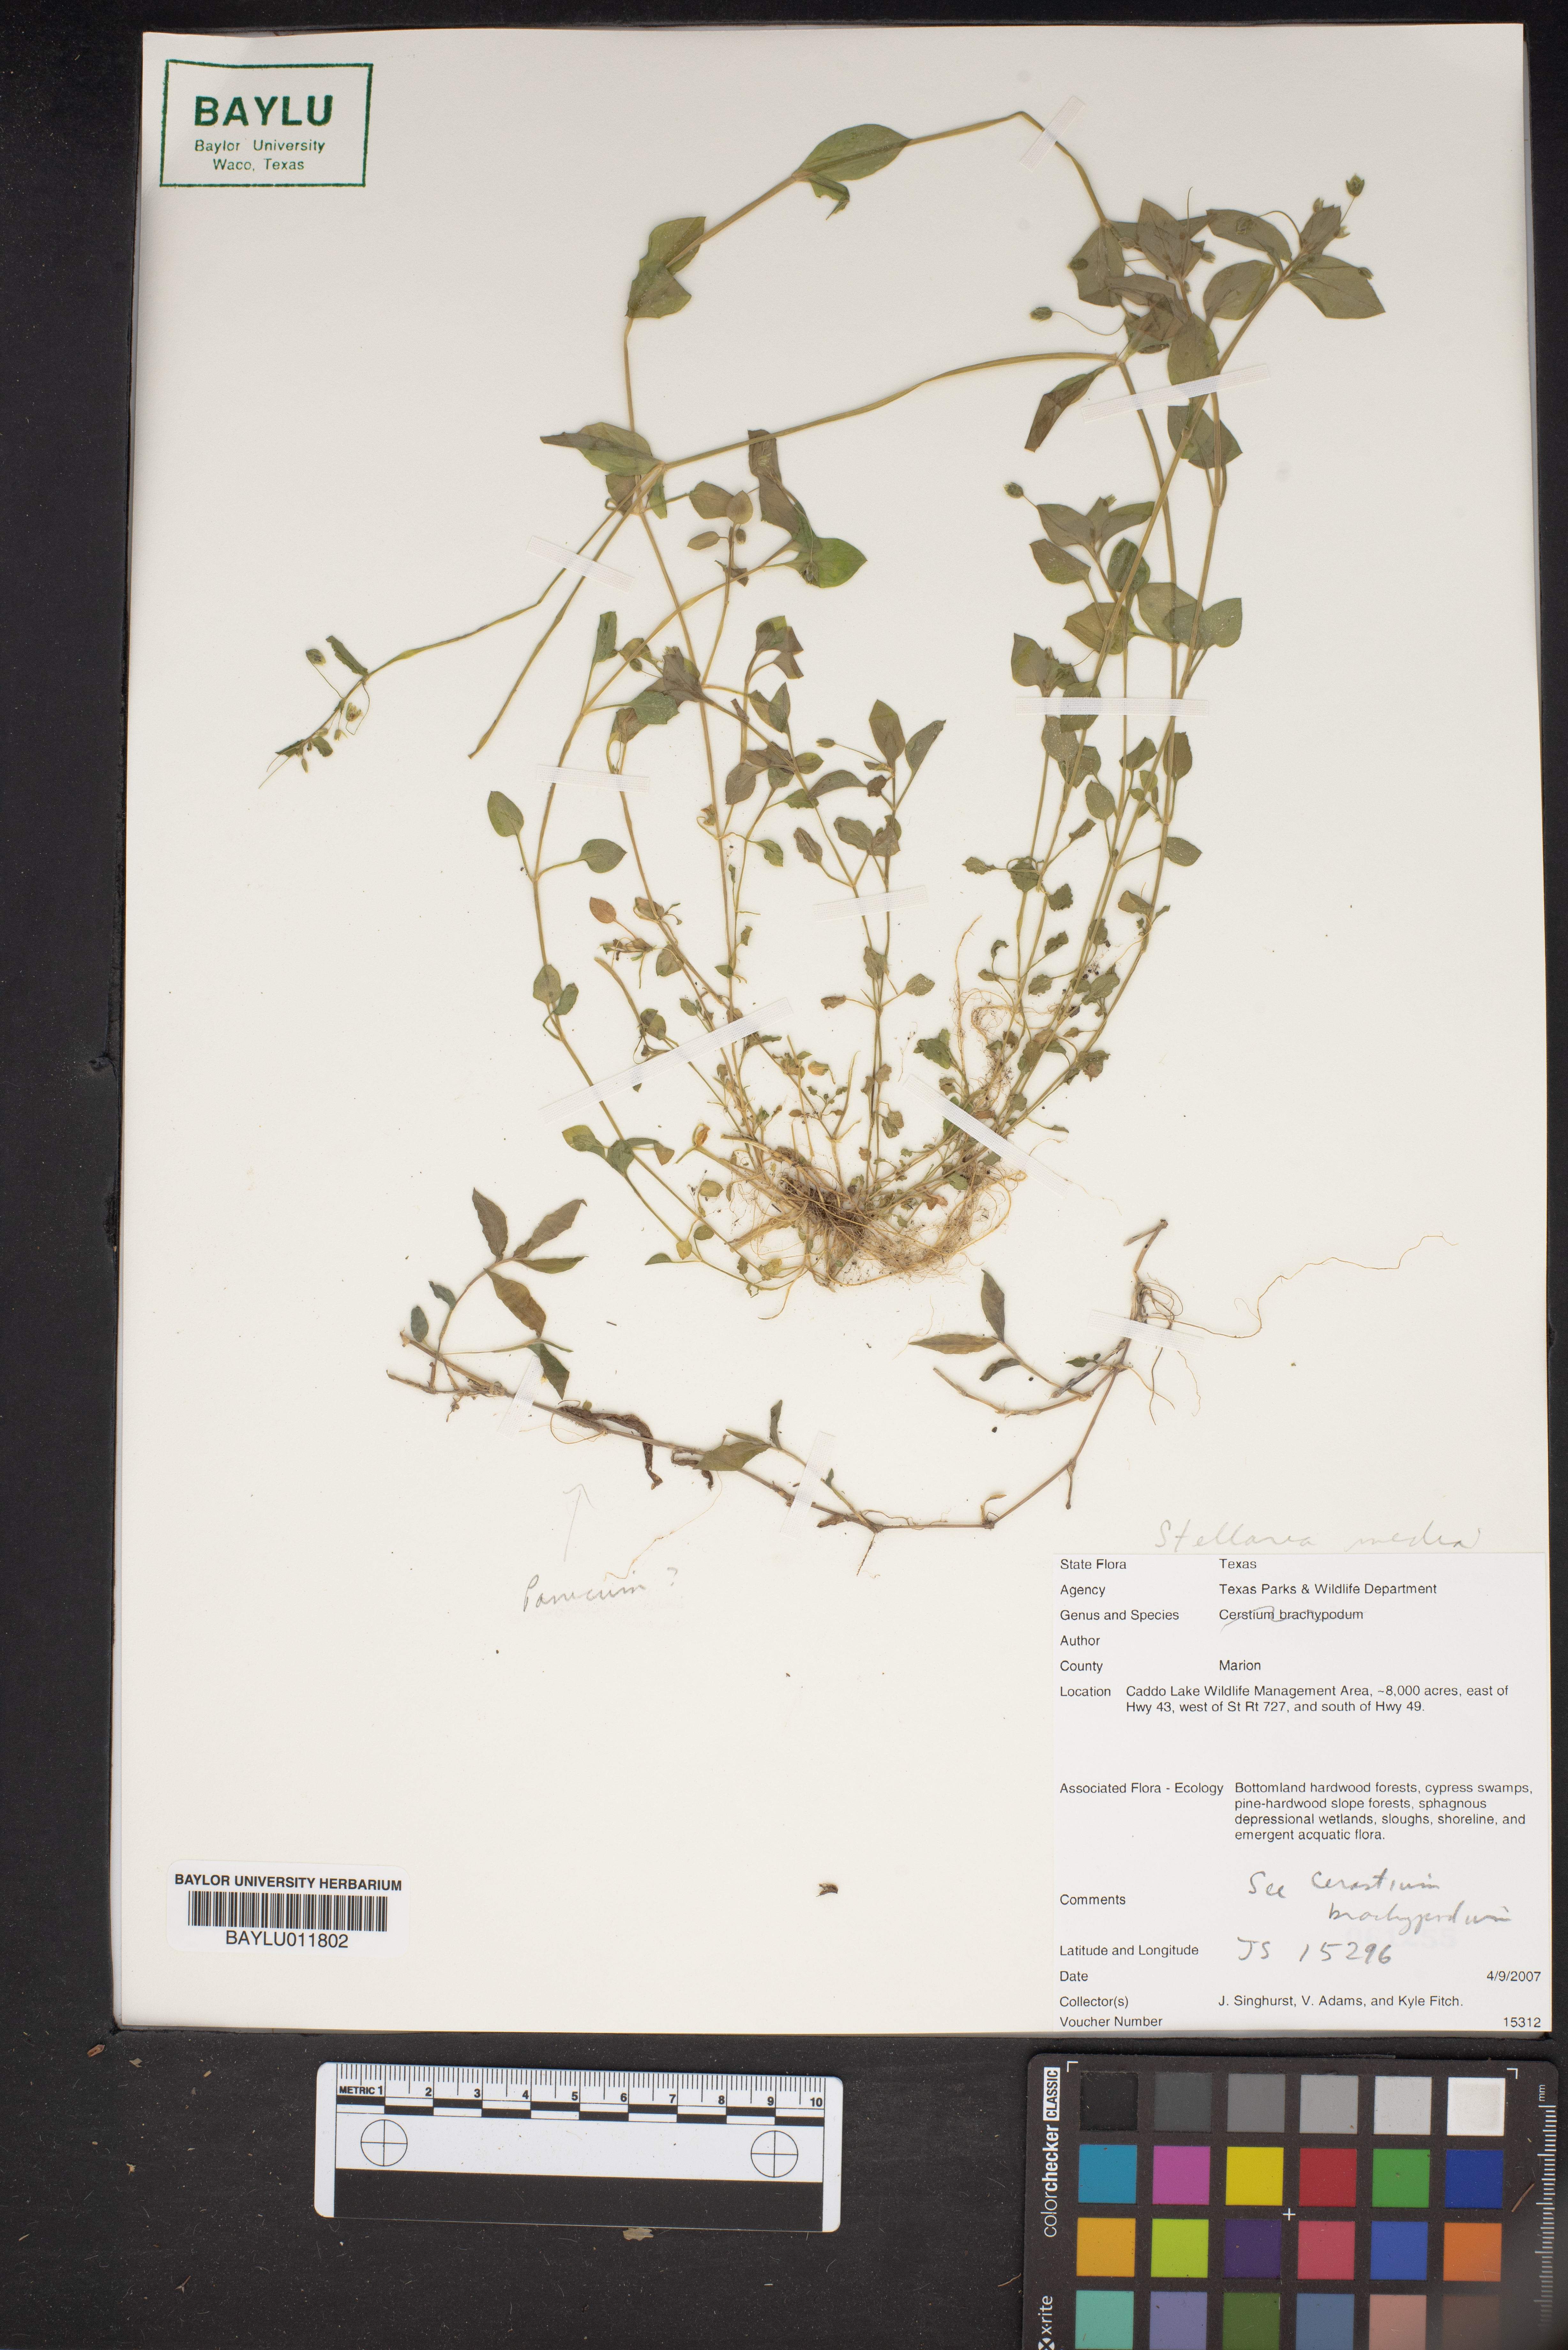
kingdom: Plantae
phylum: Tracheophyta
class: Magnoliopsida
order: Caryophyllales
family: Caryophyllaceae
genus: Stellaria
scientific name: Stellaria media
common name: Common chickweed
